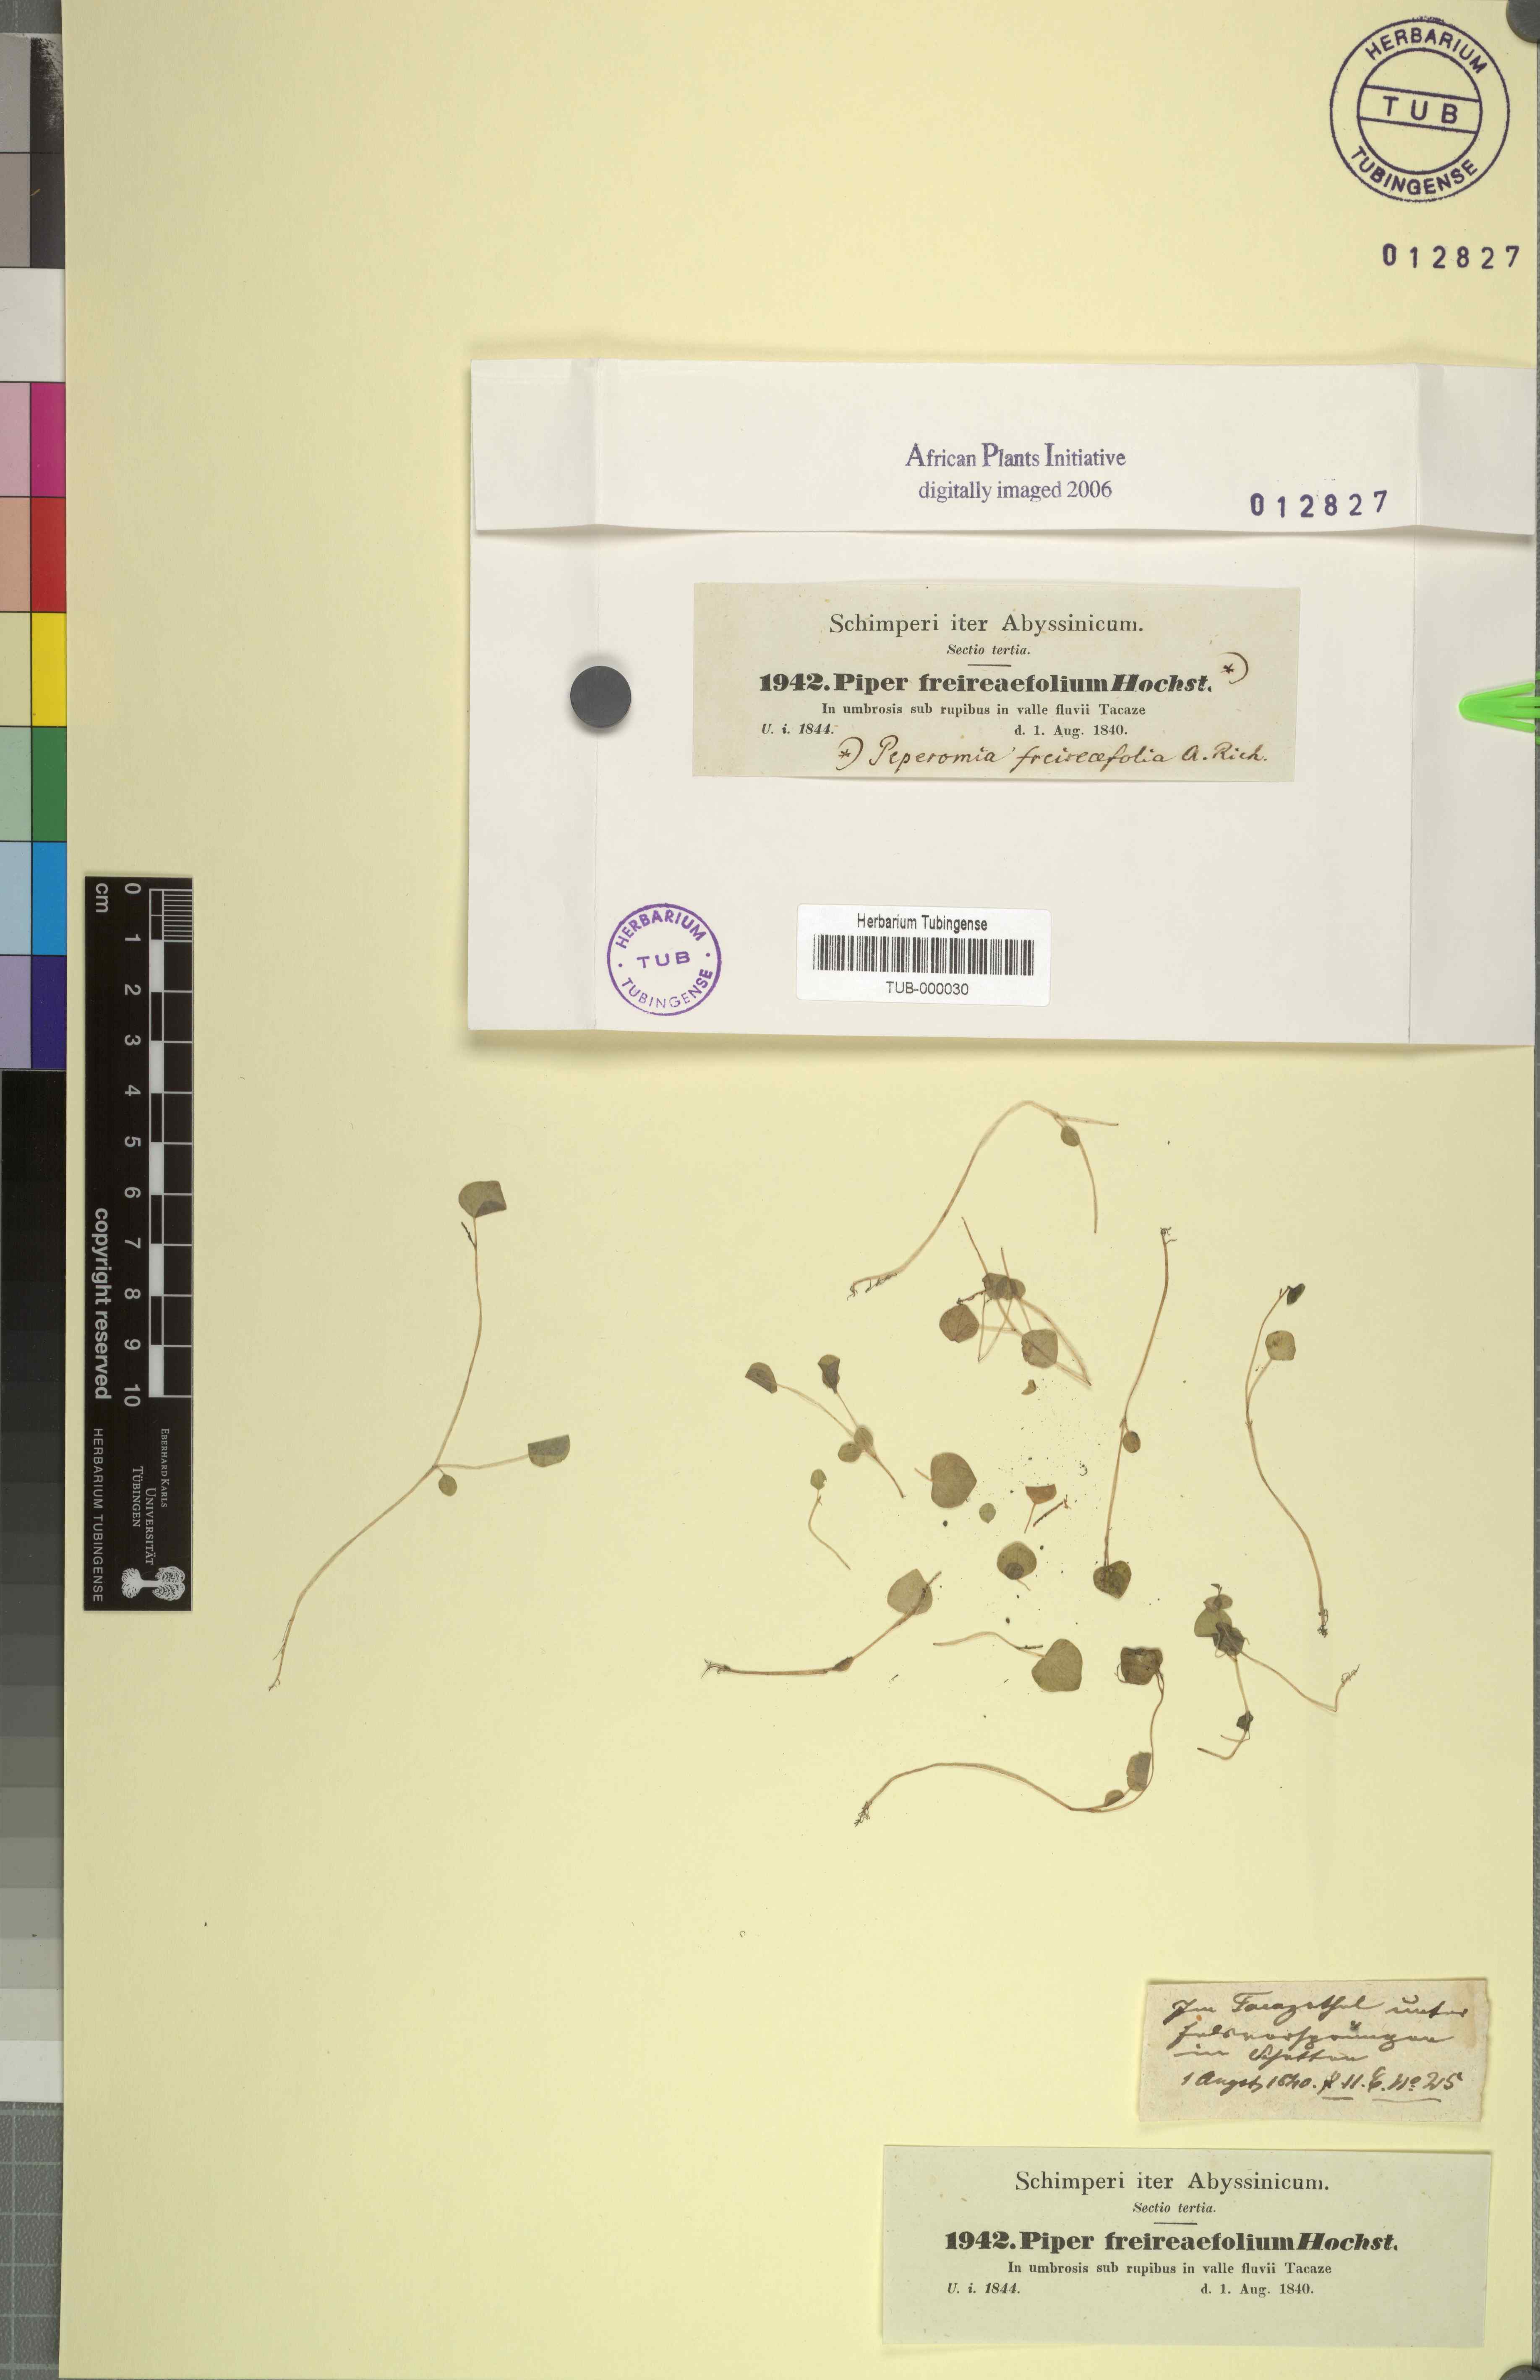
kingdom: Plantae
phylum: Tracheophyta
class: Magnoliopsida
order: Piperales
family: Piperaceae
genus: Peperomia
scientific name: Peperomia pellucida
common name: Man to man
